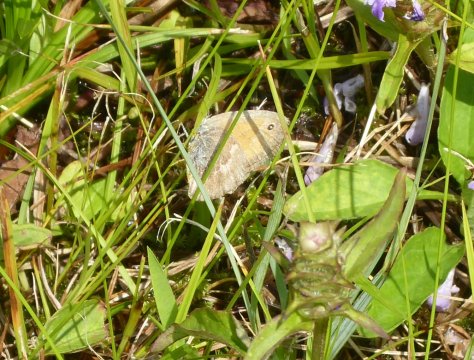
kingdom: Animalia
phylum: Arthropoda
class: Insecta
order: Lepidoptera
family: Nymphalidae
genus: Coenonympha
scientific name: Coenonympha tullia
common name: Large Heath
